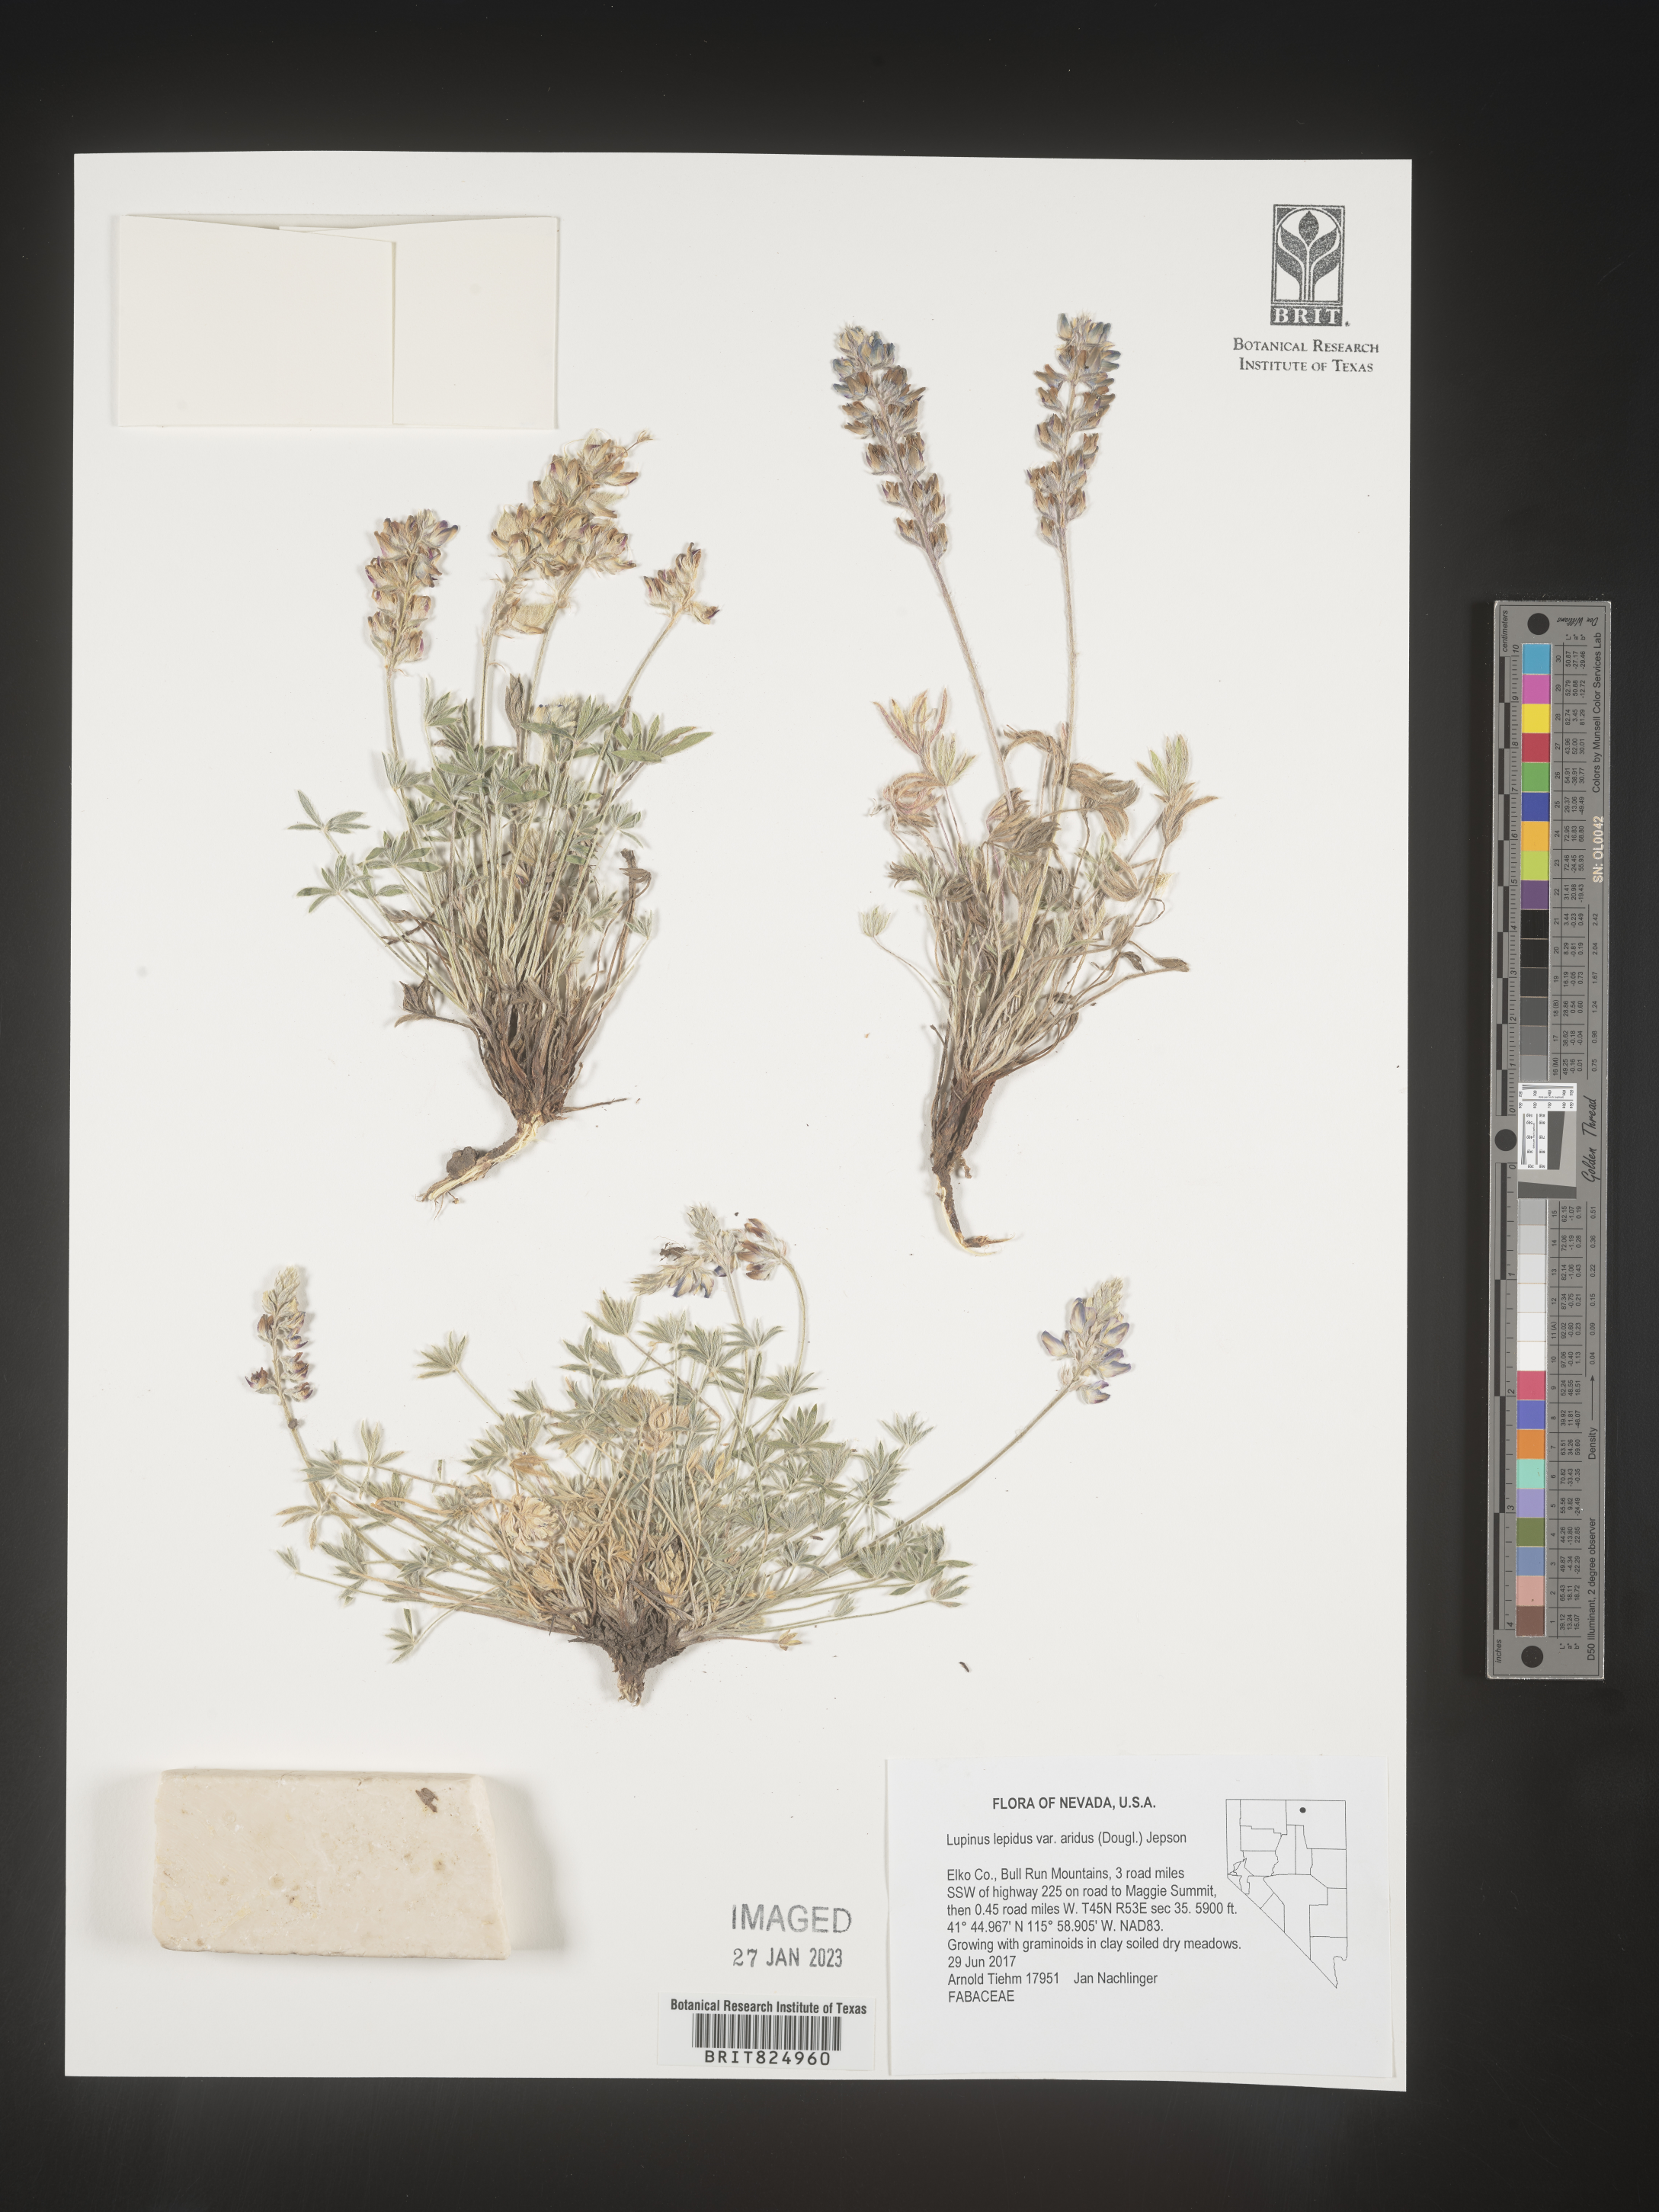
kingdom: Plantae
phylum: Tracheophyta
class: Magnoliopsida
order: Fabales
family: Fabaceae
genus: Lupinus
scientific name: Lupinus
